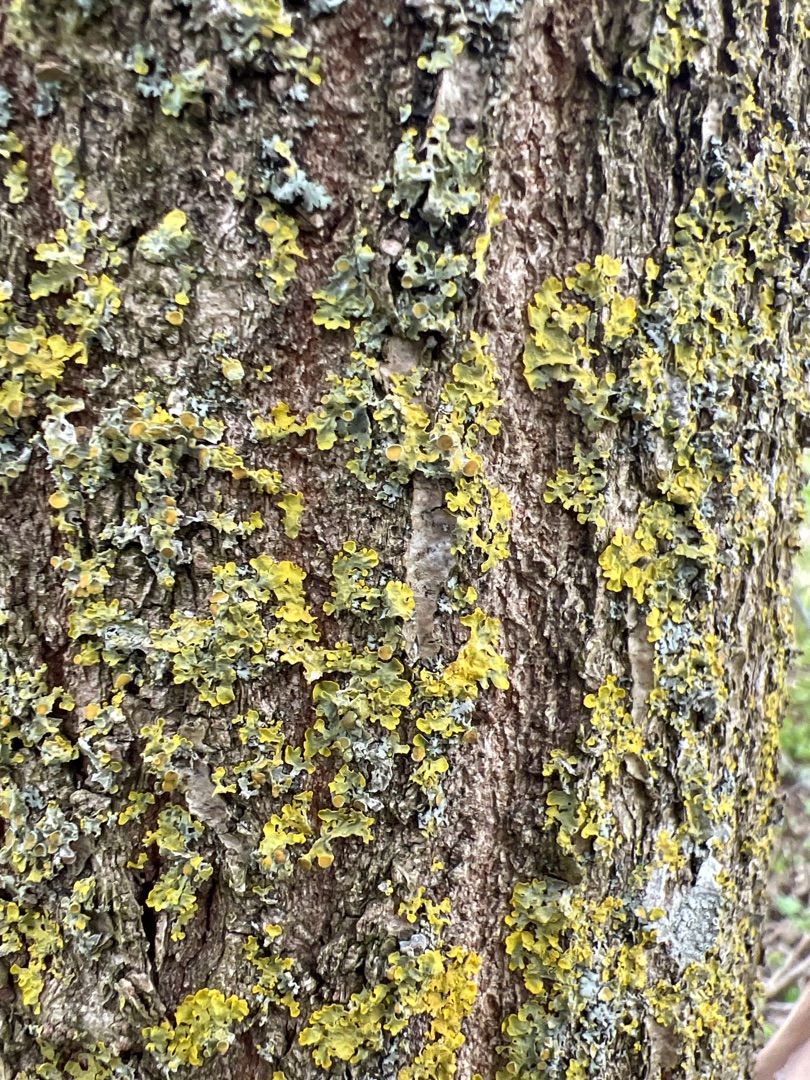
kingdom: Fungi
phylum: Ascomycota
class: Lecanoromycetes
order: Teloschistales
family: Teloschistaceae
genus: Xanthoria
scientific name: Xanthoria parietina
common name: Almindelig væggelav
